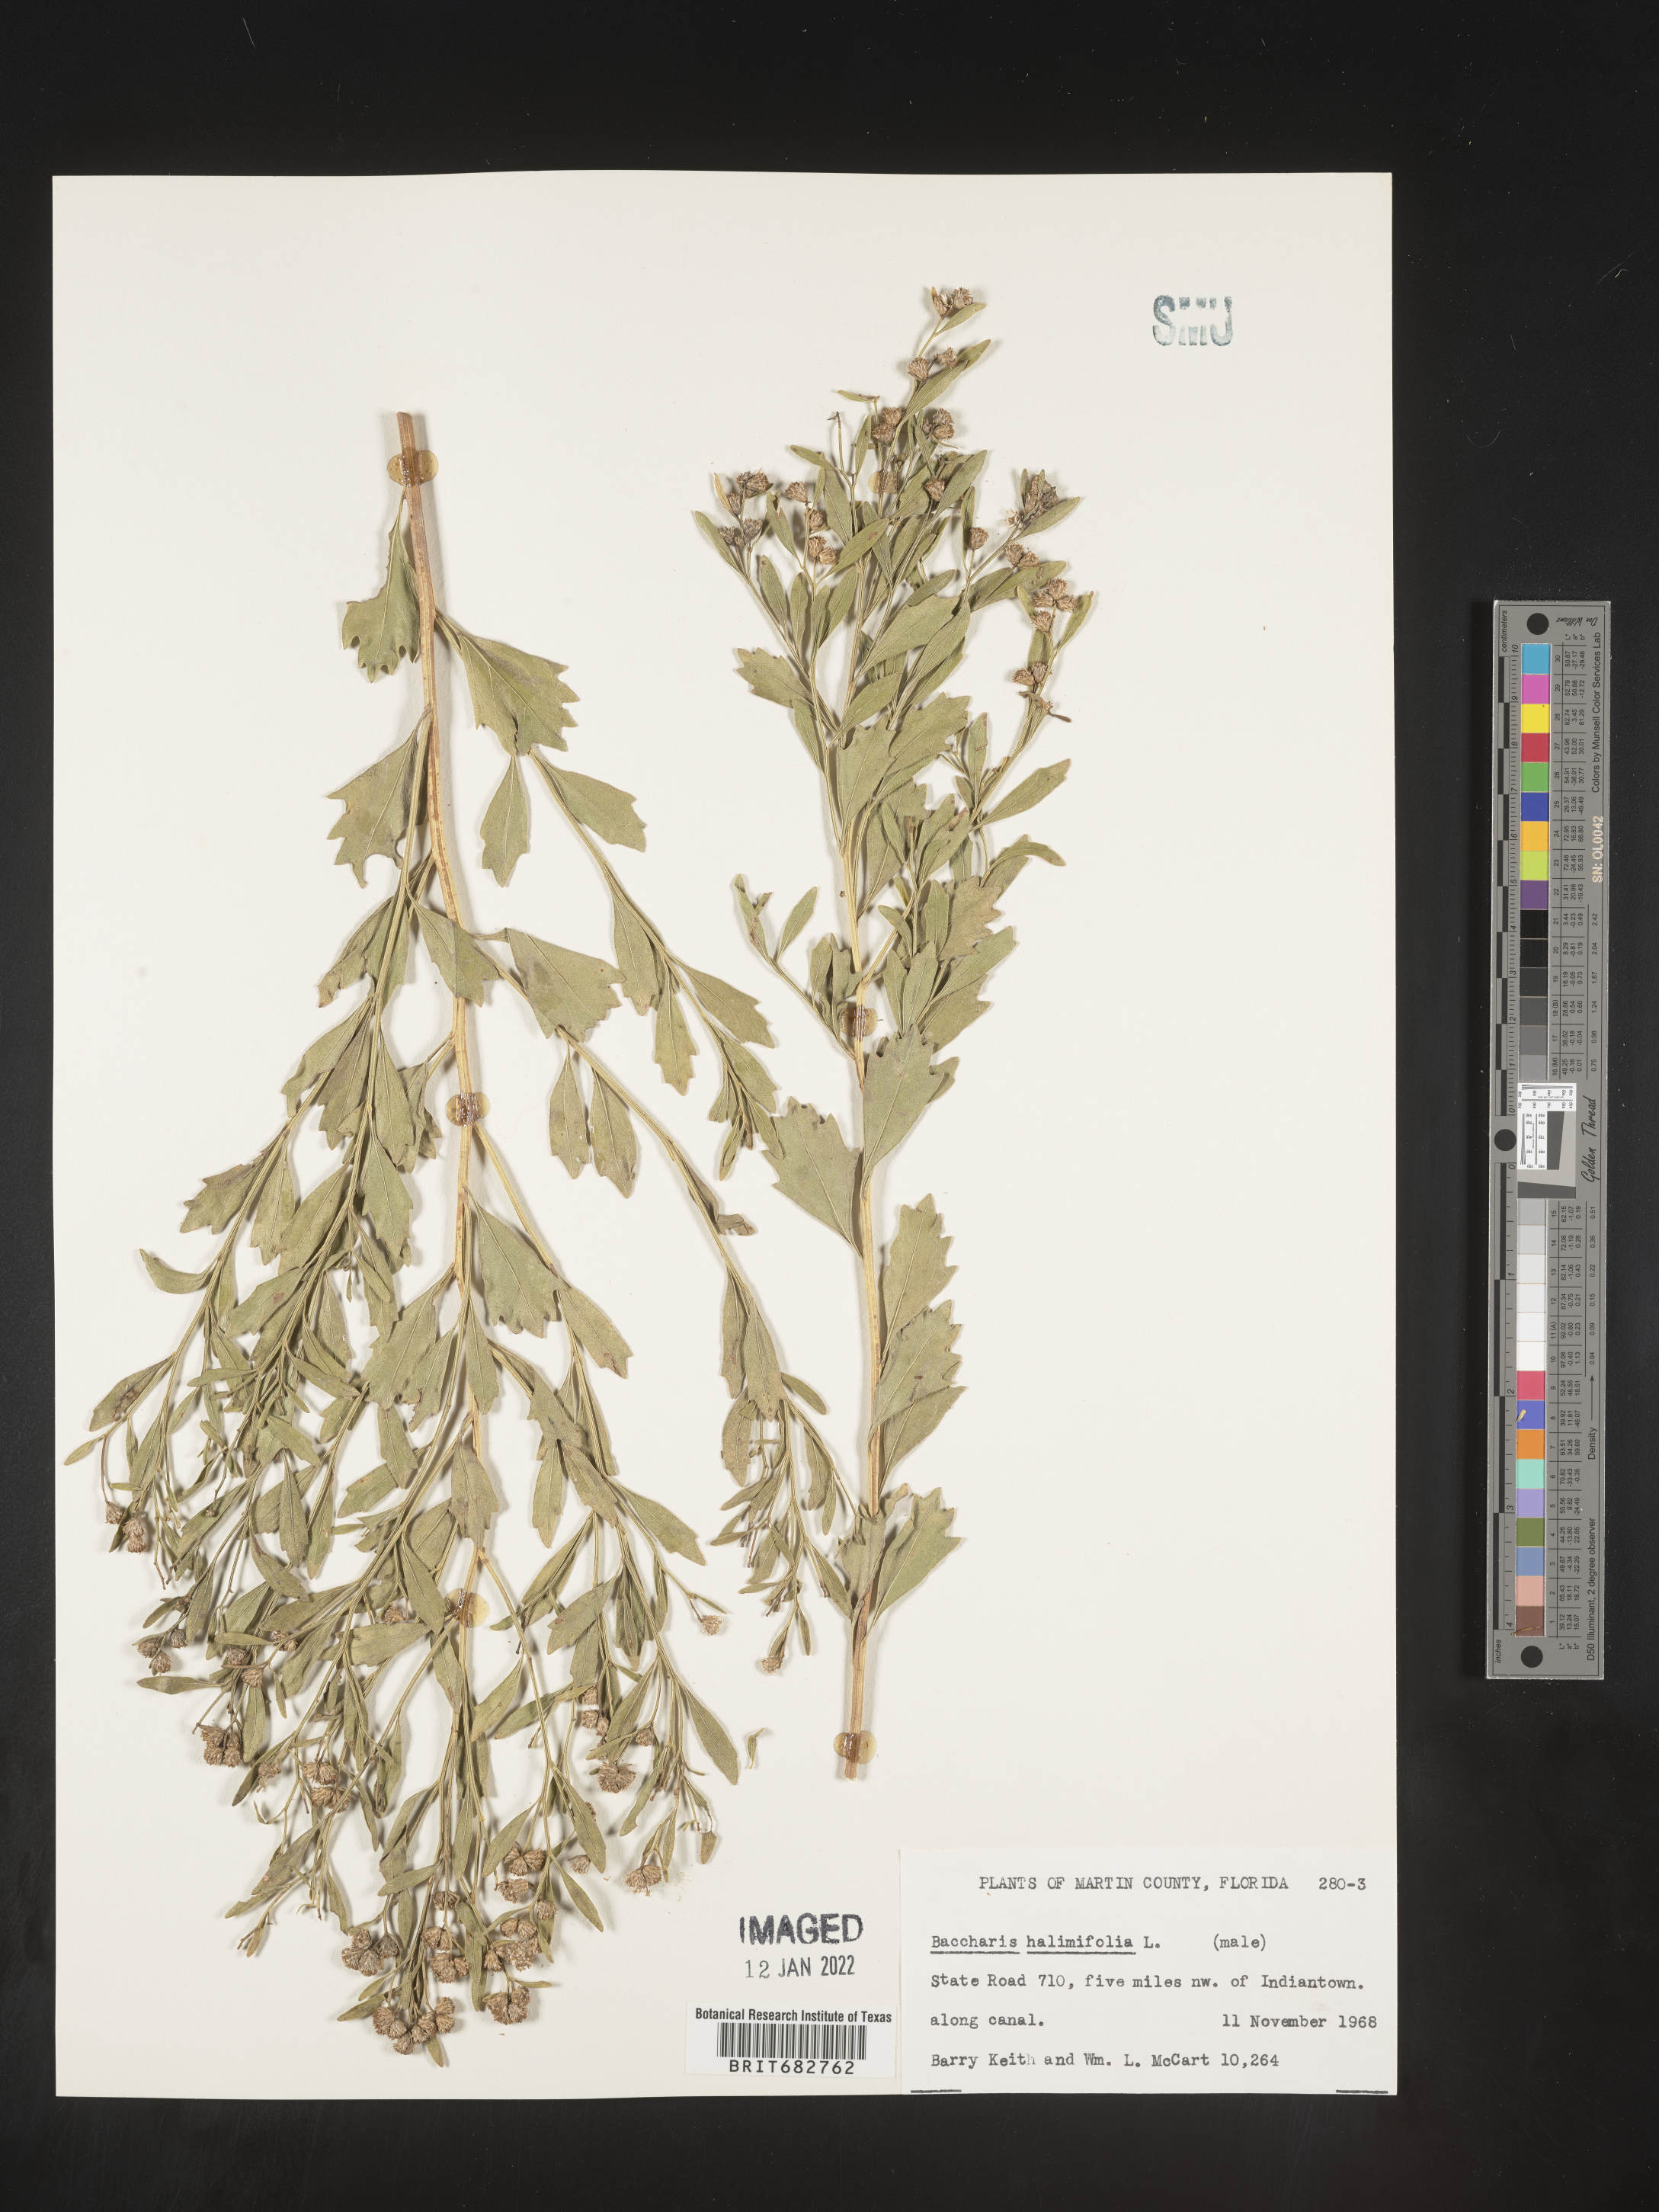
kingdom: Plantae
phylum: Tracheophyta
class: Magnoliopsida
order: Asterales
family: Asteraceae
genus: Nidorella
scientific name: Nidorella ivifolia
